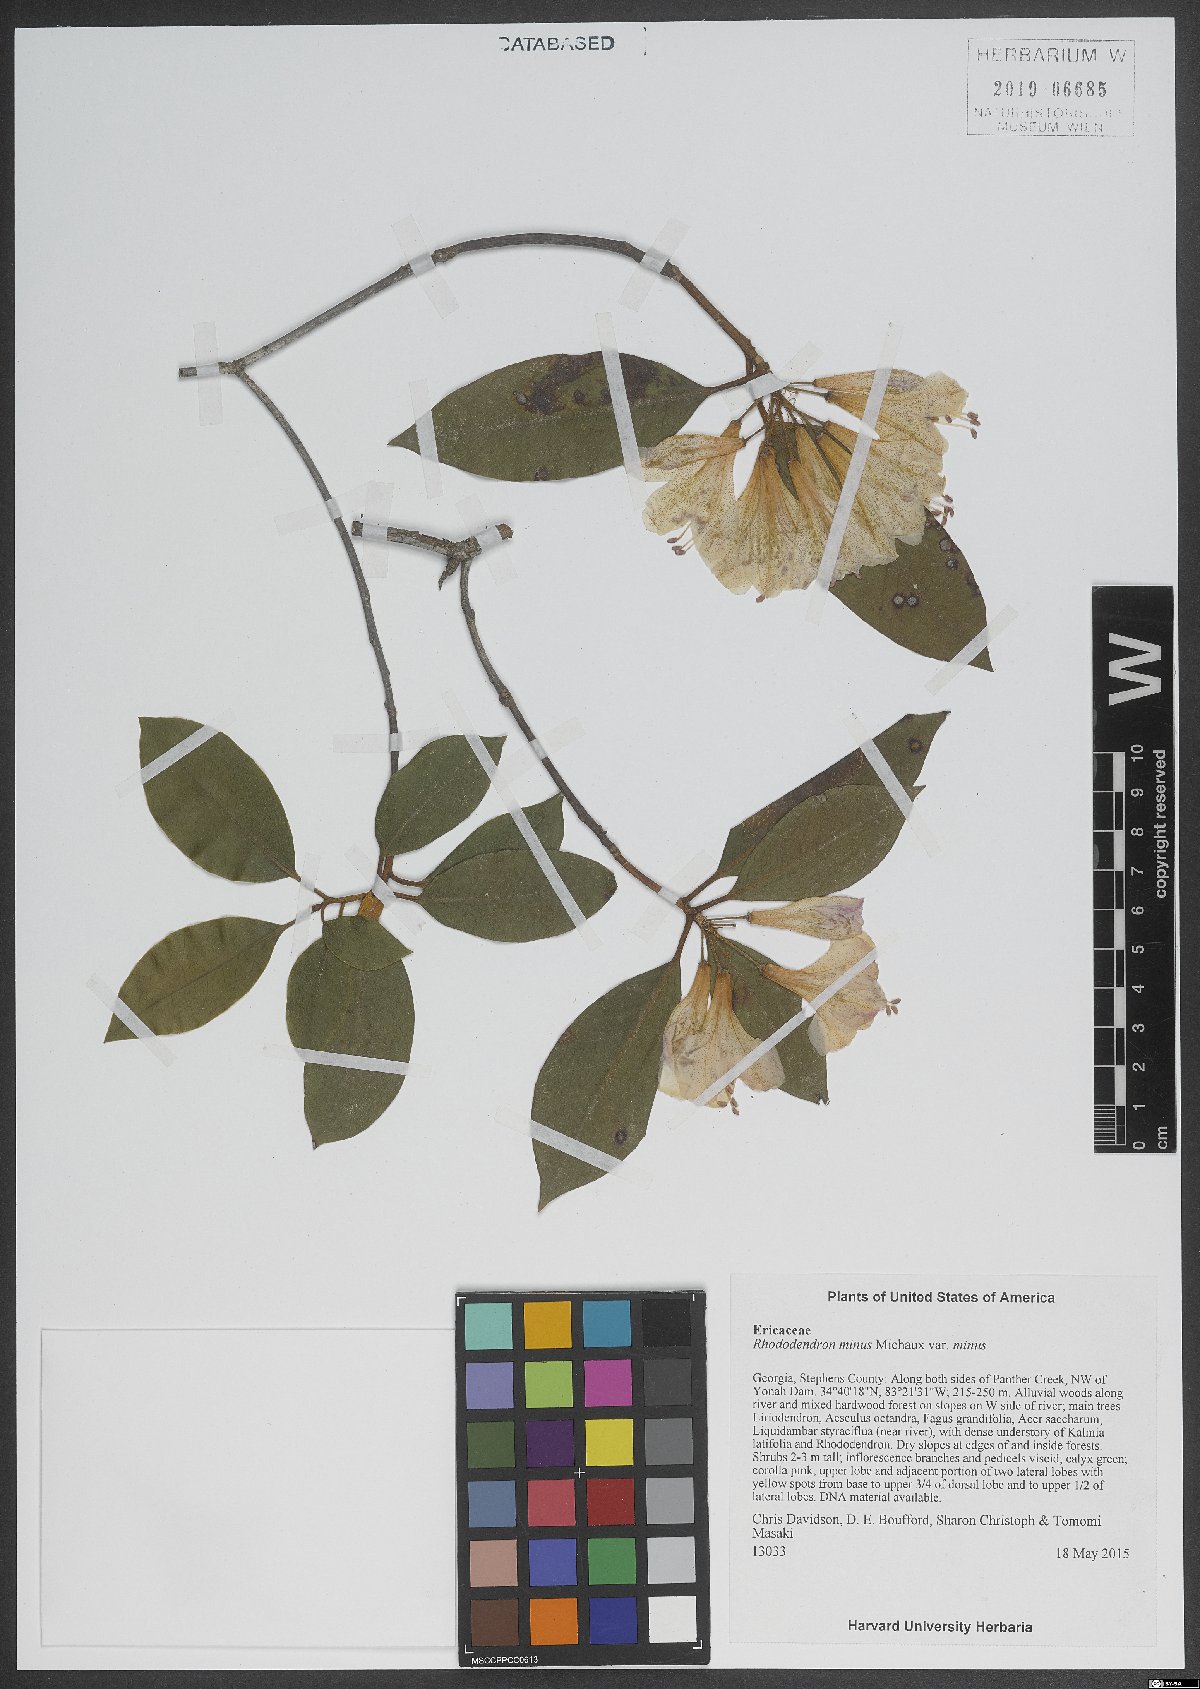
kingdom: Plantae
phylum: Tracheophyta
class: Magnoliopsida
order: Ericales
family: Ericaceae
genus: Rhododendron
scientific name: Rhododendron minus
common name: Piedmont rhododendron
